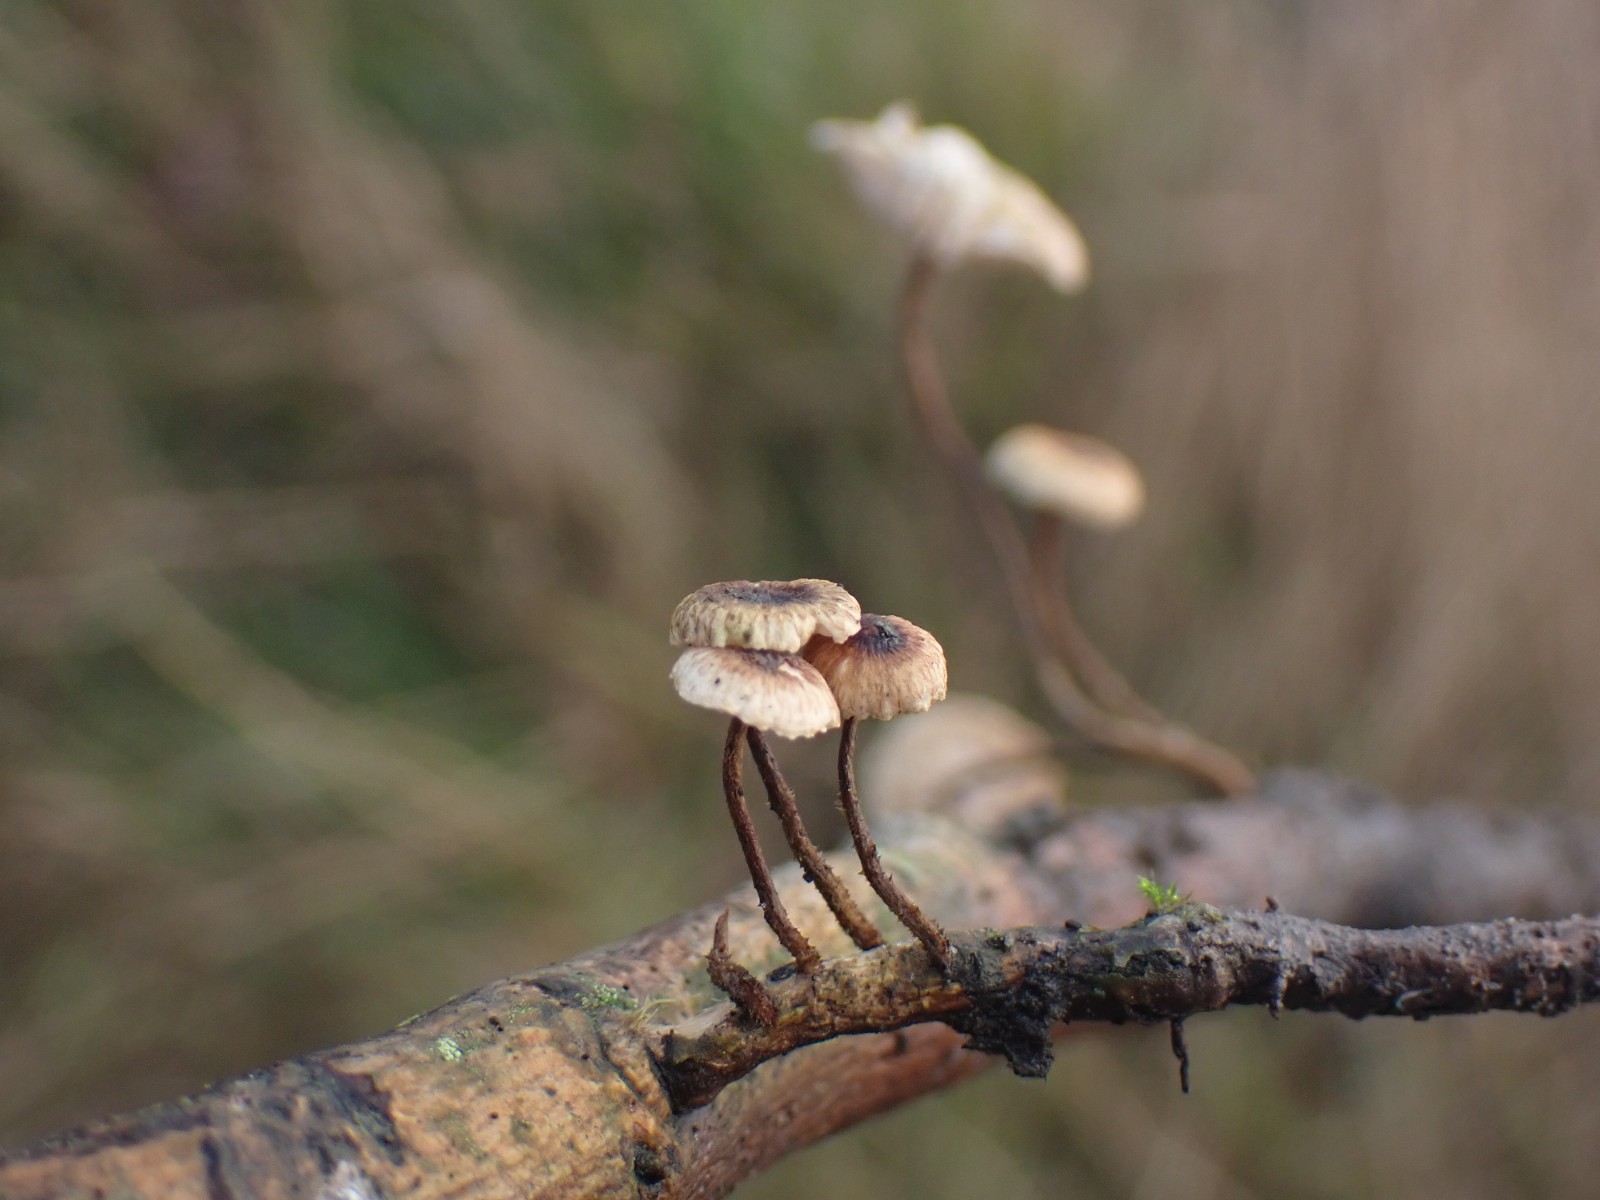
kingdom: Fungi
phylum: Basidiomycota
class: Agaricomycetes
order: Agaricales
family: Marasmiaceae
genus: Crinipellis
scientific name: Crinipellis scabella
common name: børstefod
